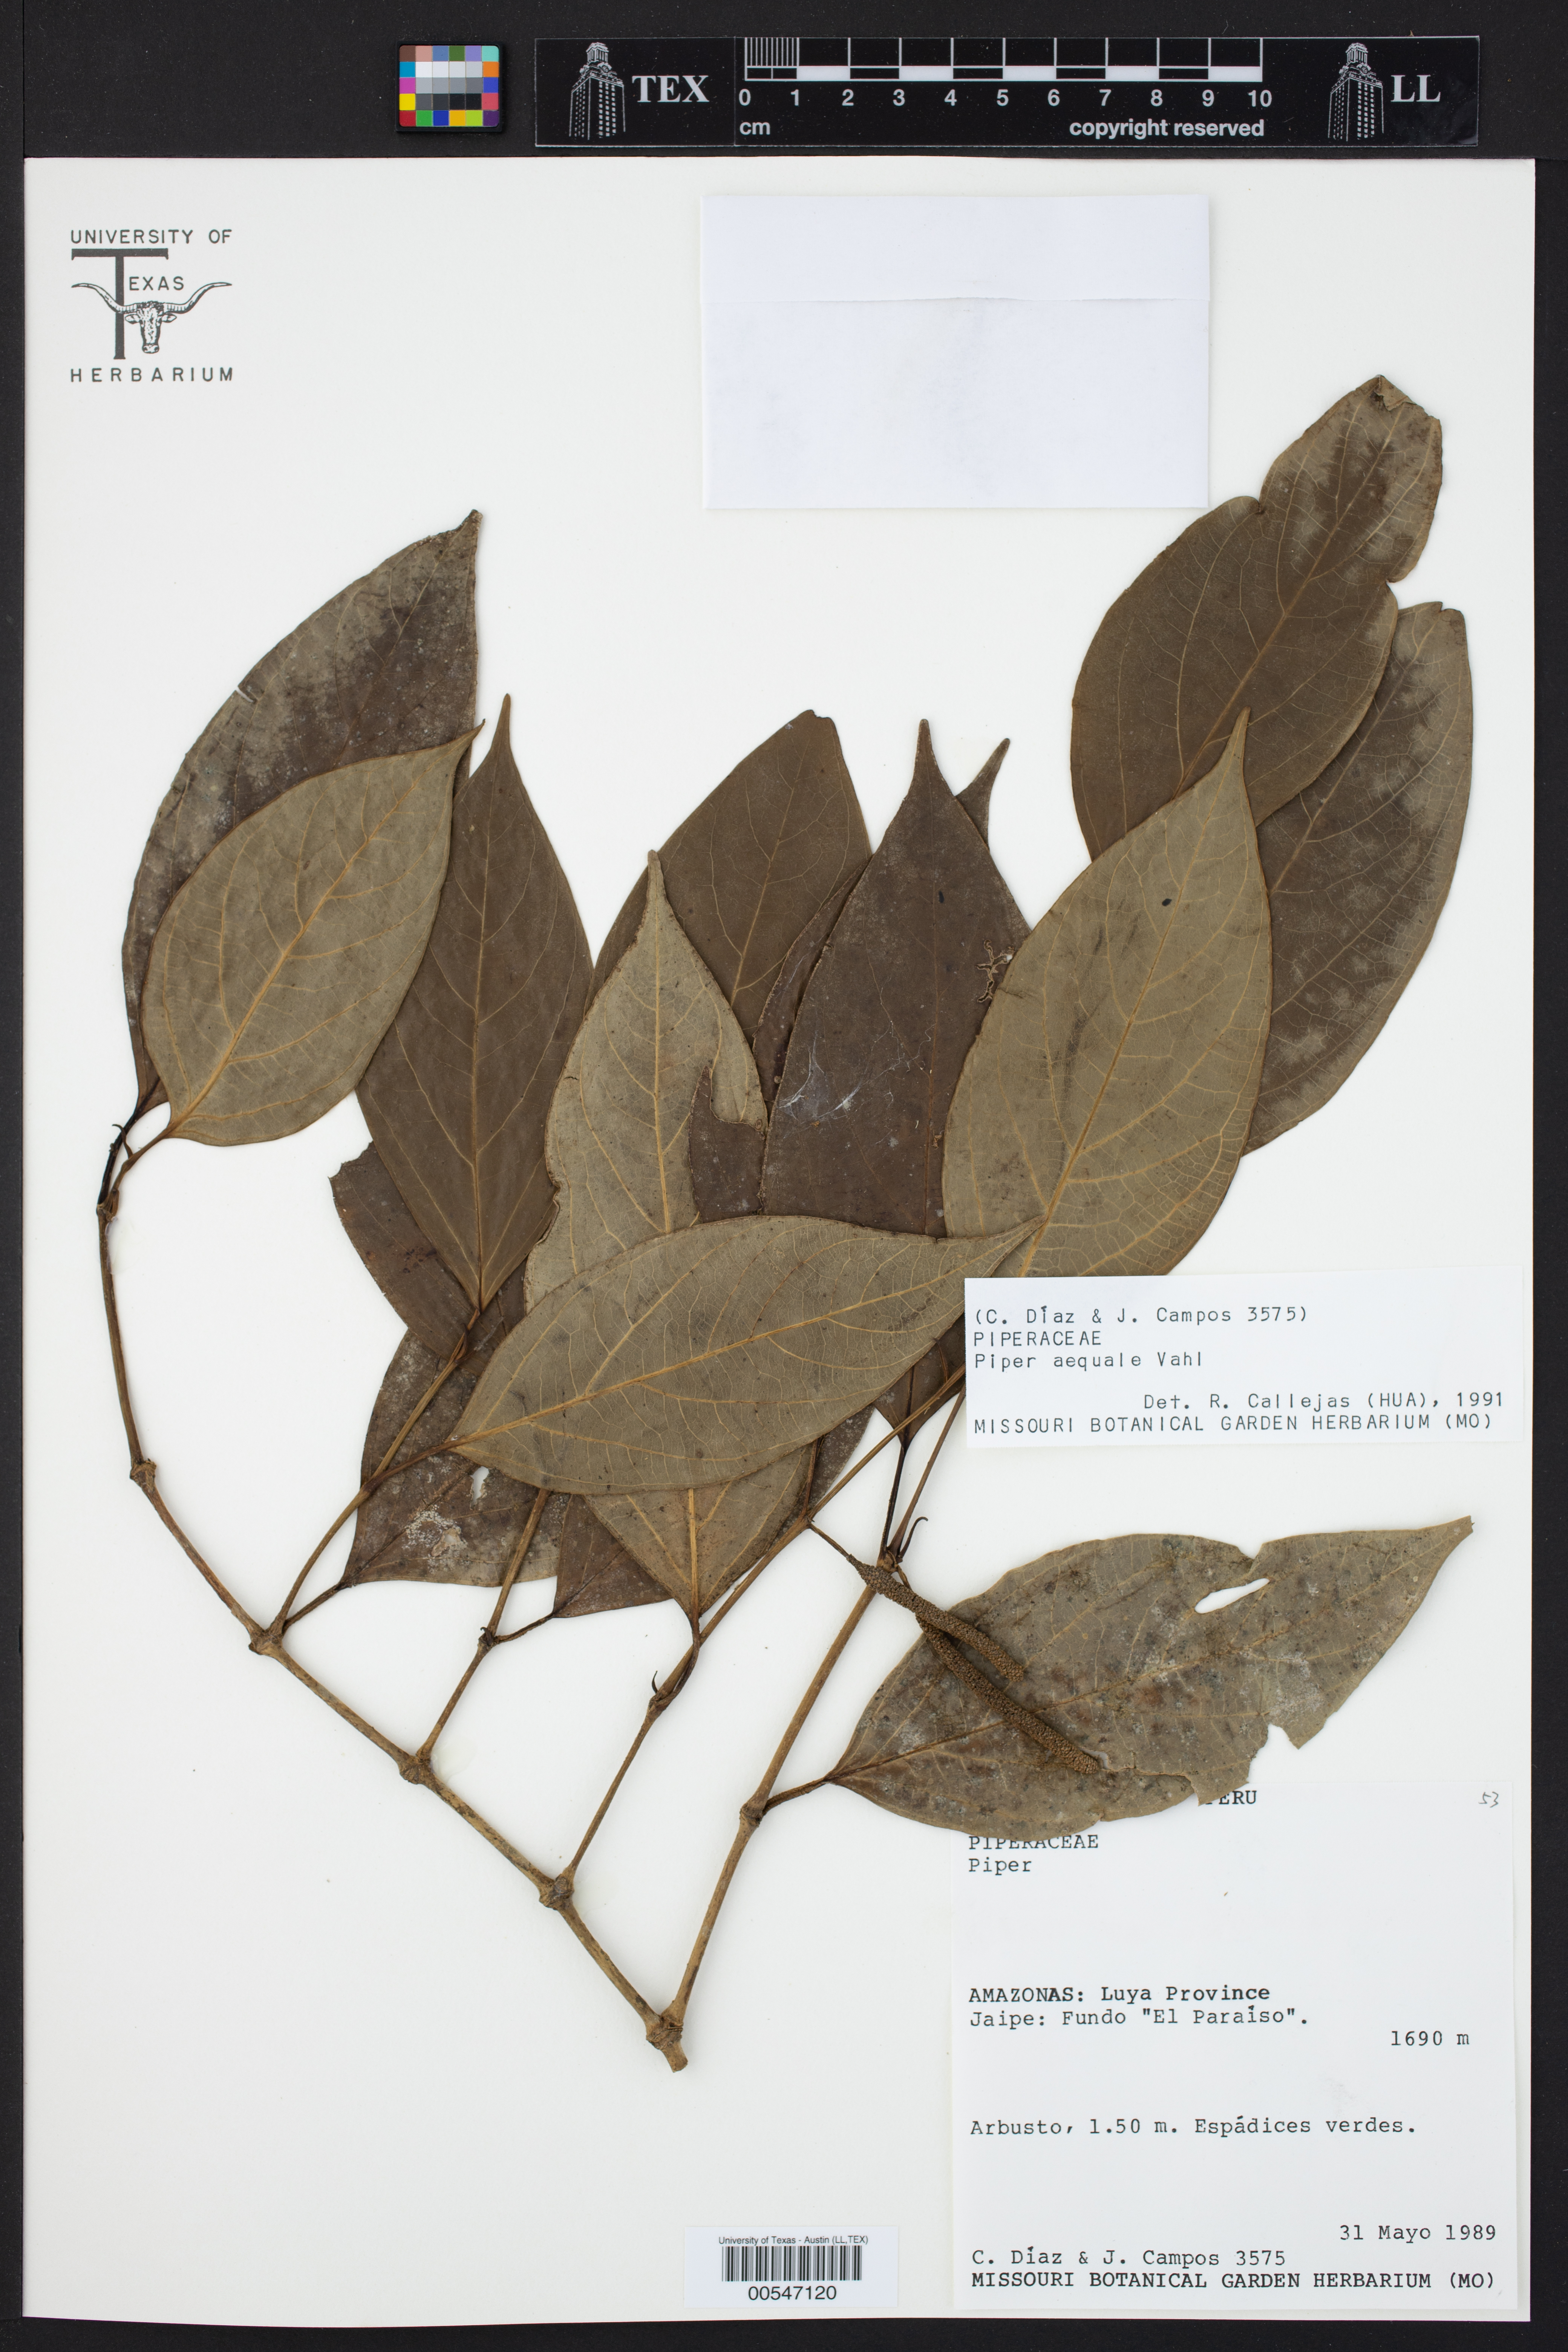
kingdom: Plantae
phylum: Tracheophyta
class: Magnoliopsida
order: Piperales
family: Piperaceae
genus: Piper
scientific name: Piper aequale
